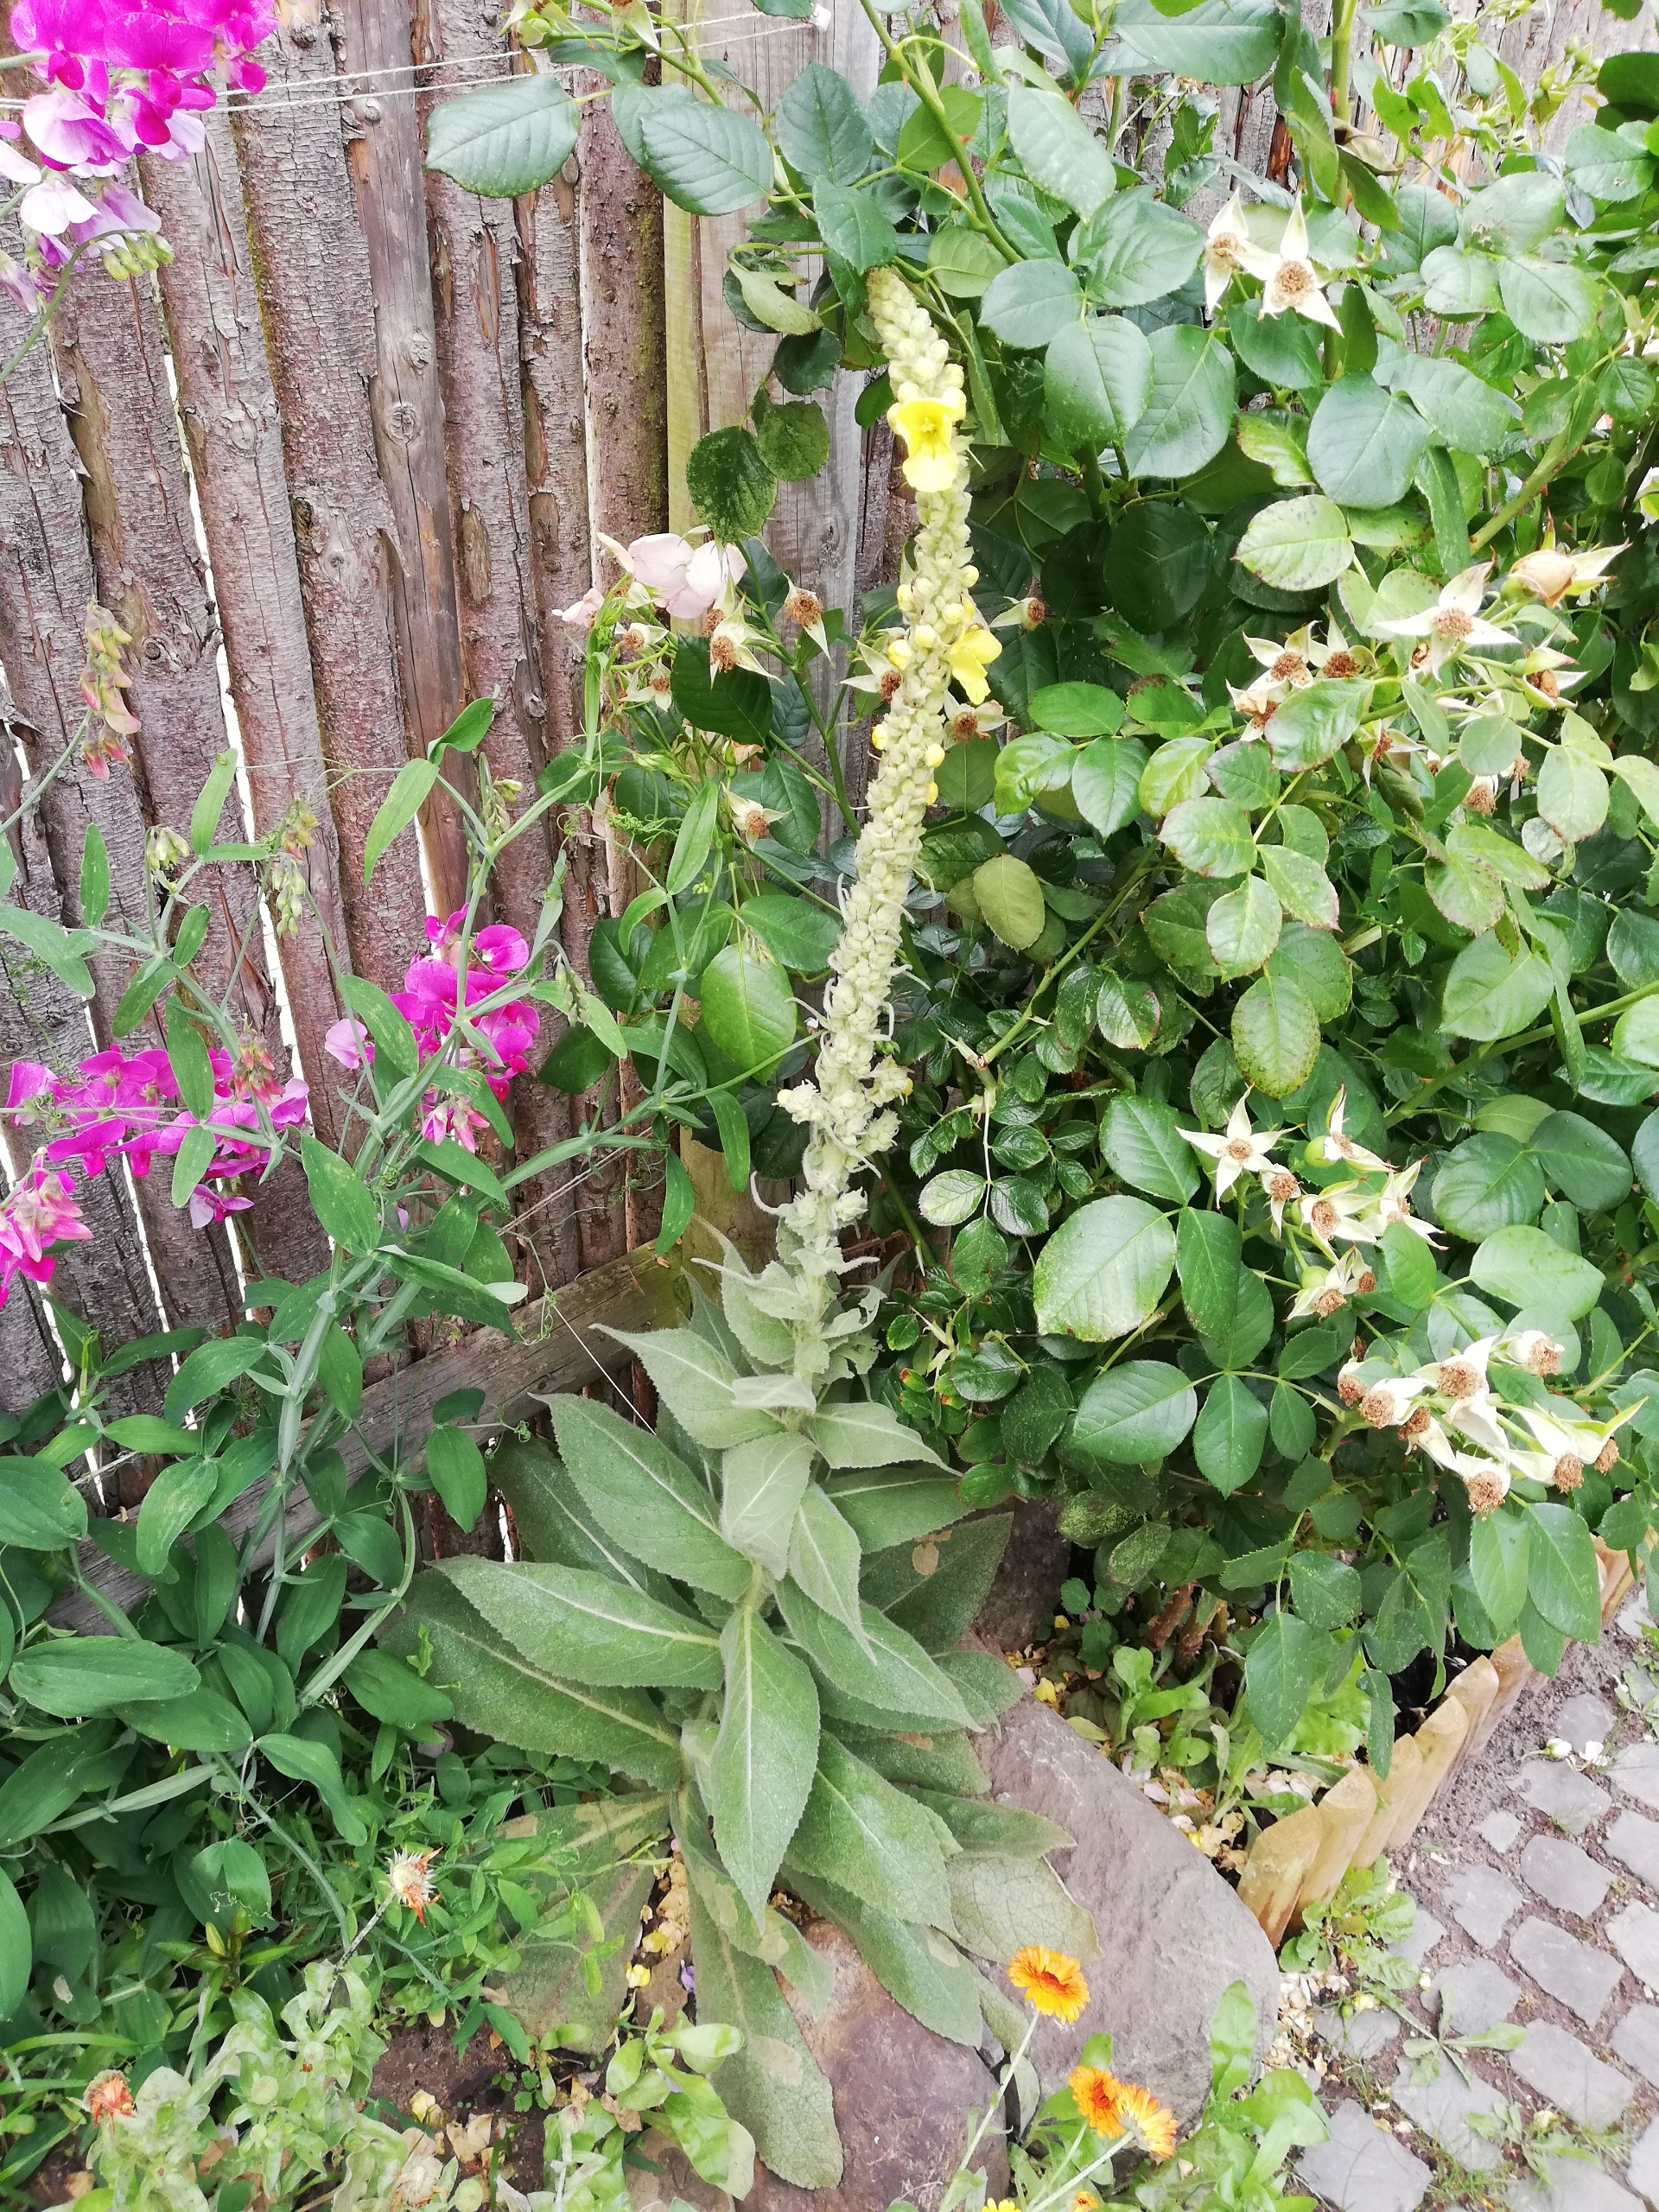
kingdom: Plantae
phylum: Tracheophyta
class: Magnoliopsida
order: Lamiales
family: Scrophulariaceae
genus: Verbascum
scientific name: Verbascum densiflorum
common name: Uldbladet kongelys
